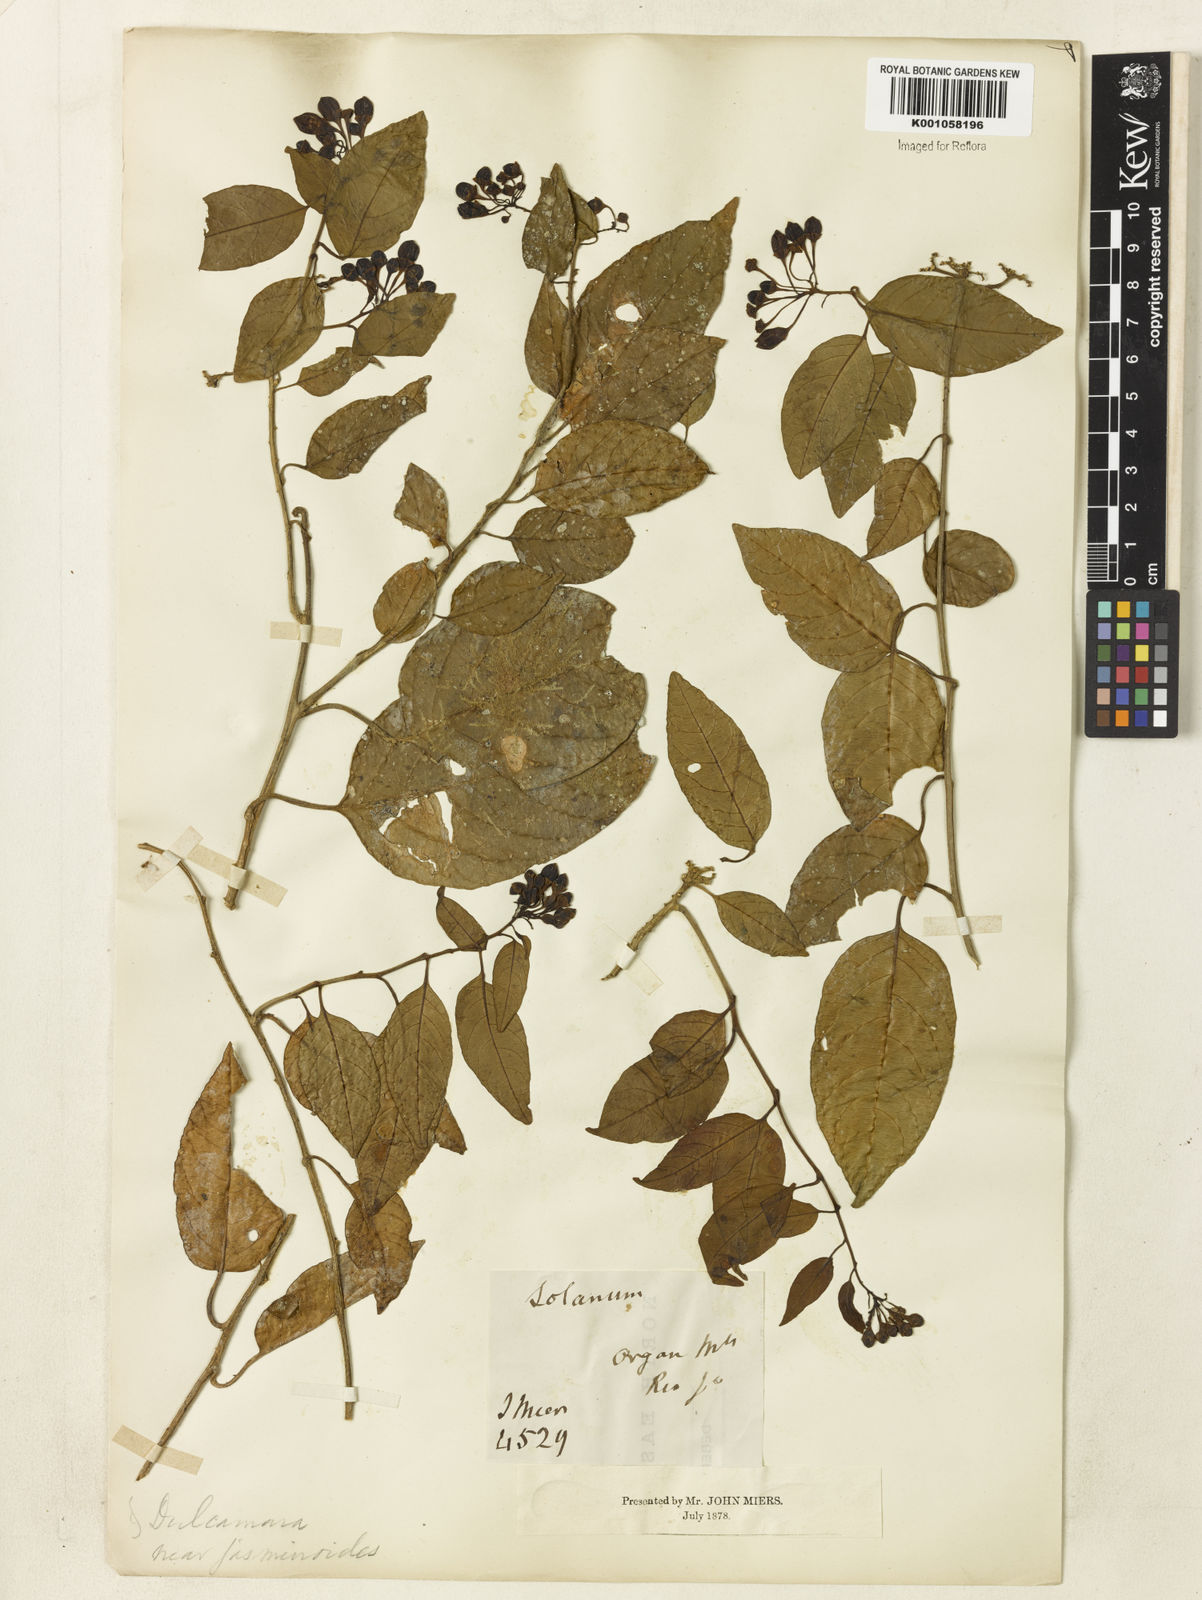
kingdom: Plantae
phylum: Tracheophyta
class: Magnoliopsida
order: Solanales
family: Solanaceae
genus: Solanum
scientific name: Solanum odoriferum
